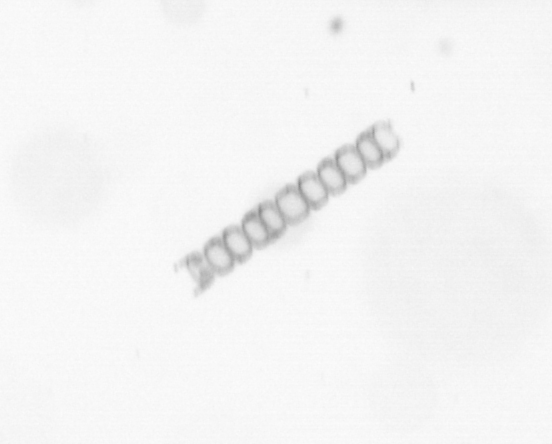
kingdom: Chromista
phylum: Ochrophyta
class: Bacillariophyceae
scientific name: Bacillariophyceae
